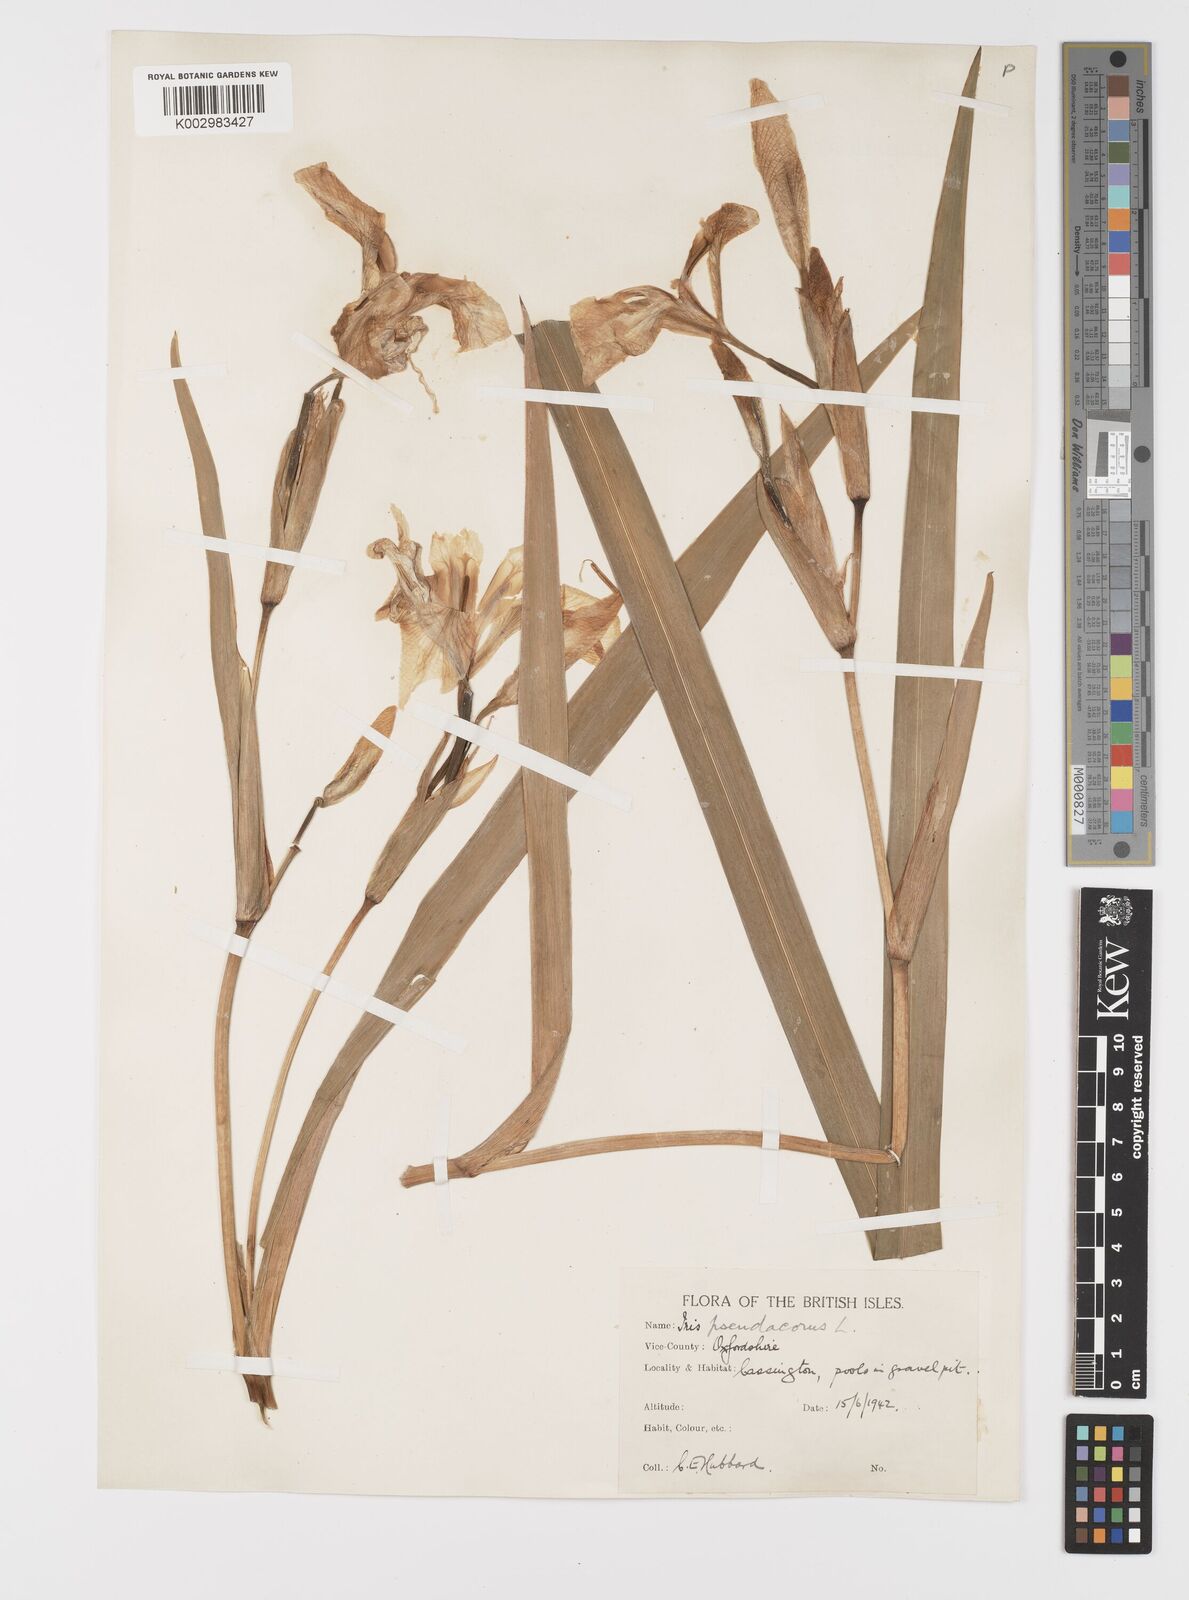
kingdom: Plantae
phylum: Tracheophyta
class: Liliopsida
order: Asparagales
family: Iridaceae
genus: Iris
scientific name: Iris pseudacorus
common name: Yellow flag
